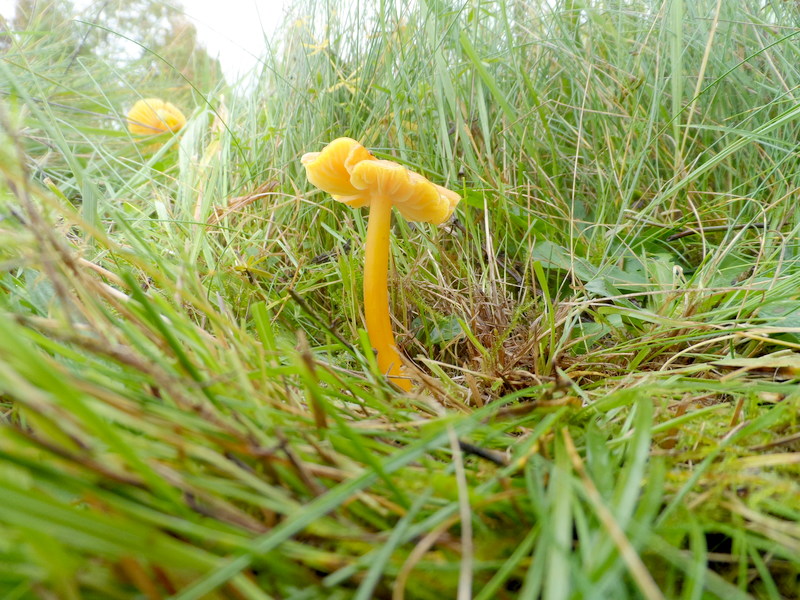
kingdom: Fungi
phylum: Basidiomycota
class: Agaricomycetes
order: Agaricales
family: Hygrophoraceae
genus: Hygrocybe
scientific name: Hygrocybe chlorophana
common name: Golden waxcap
